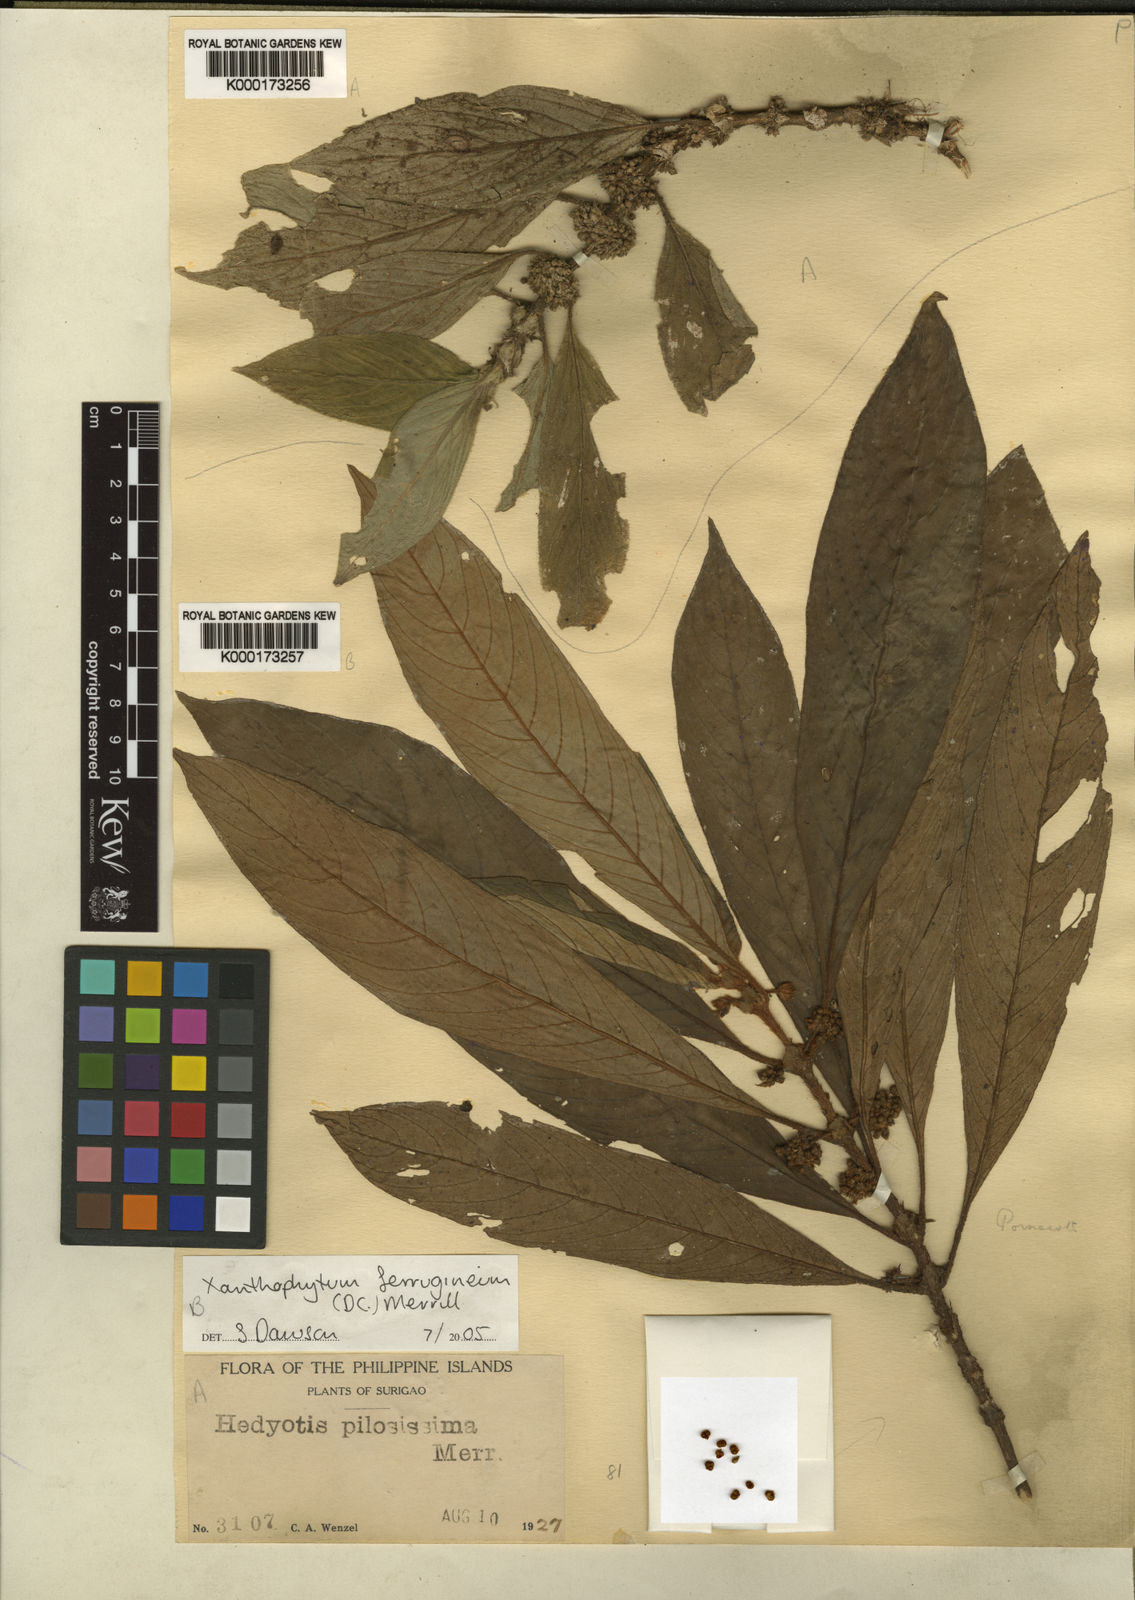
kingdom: Plantae
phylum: Tracheophyta
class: Magnoliopsida
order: Gentianales
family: Rubiaceae
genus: Xanthophytum
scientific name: Xanthophytum ferrugineum
